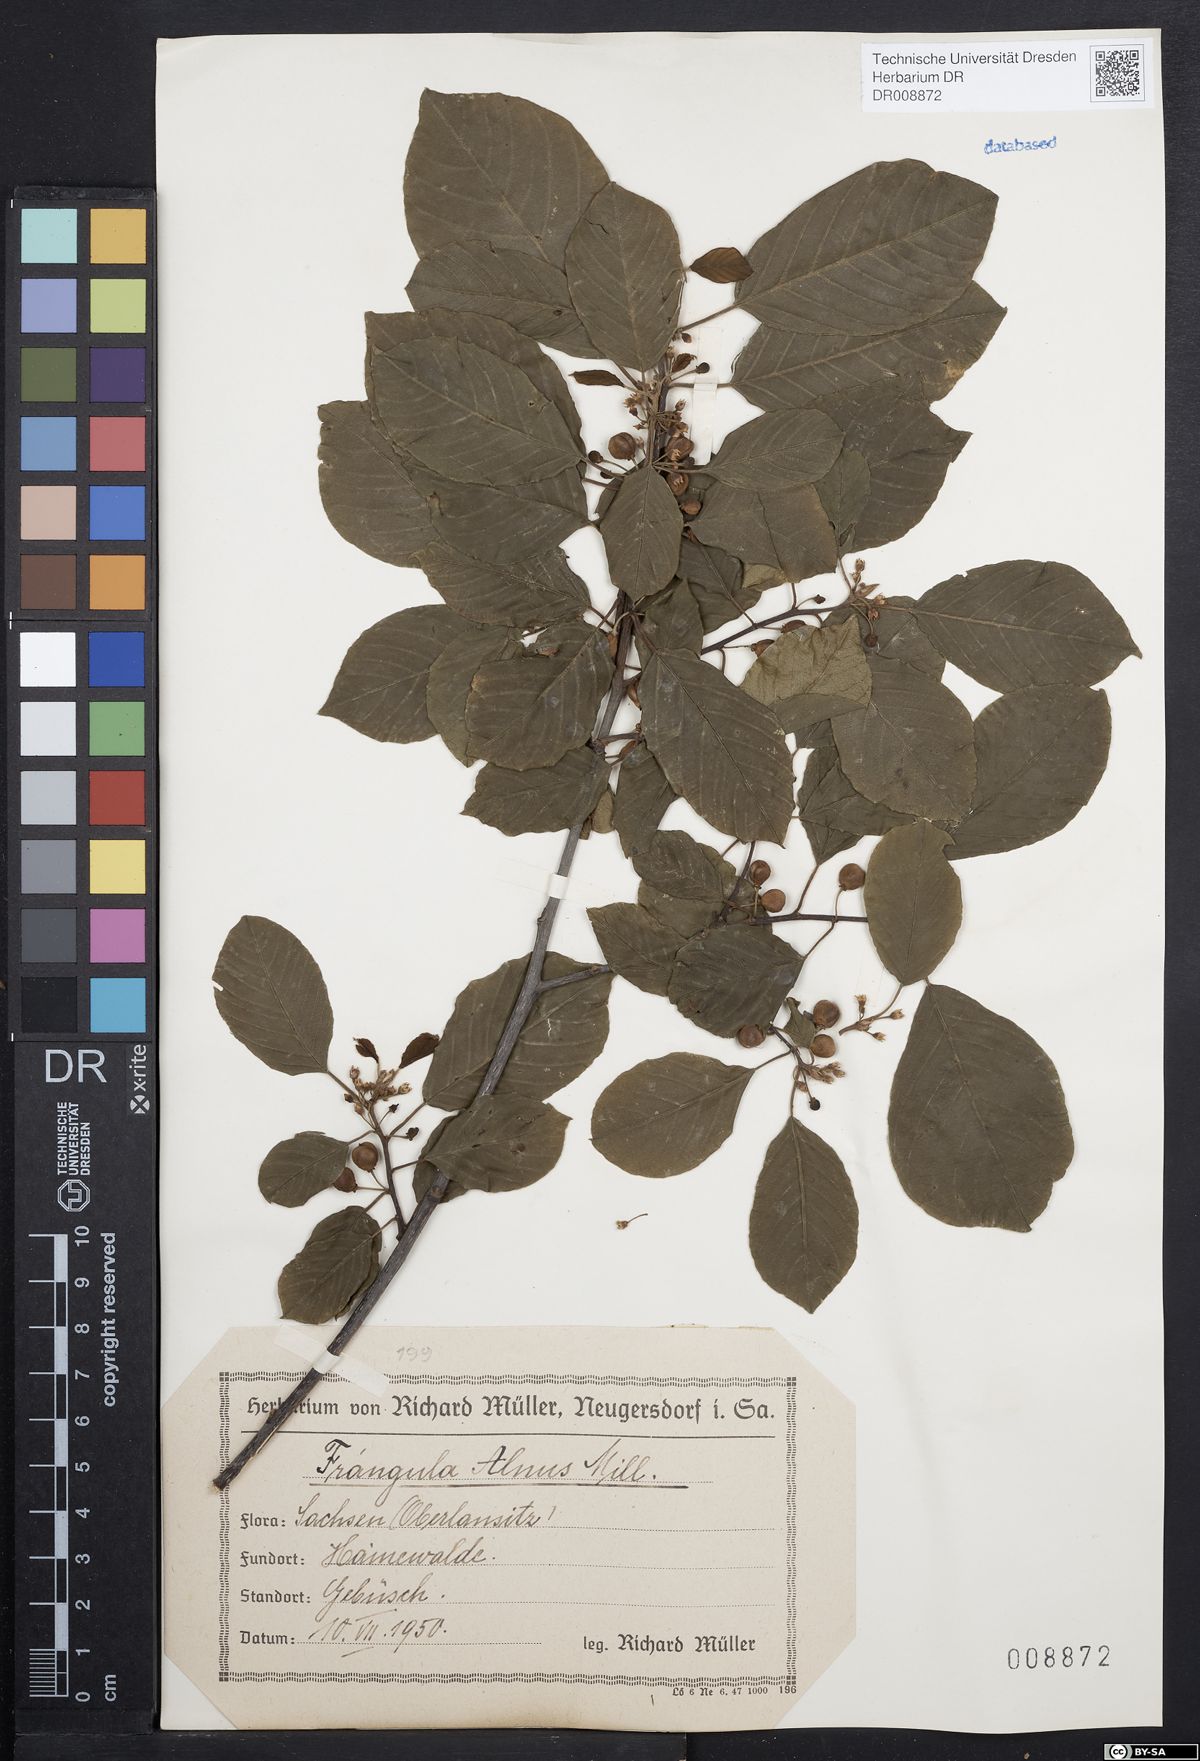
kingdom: Plantae
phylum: Tracheophyta
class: Magnoliopsida
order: Rosales
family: Rhamnaceae
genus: Frangula
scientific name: Frangula alnus
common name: Alder buckthorn
